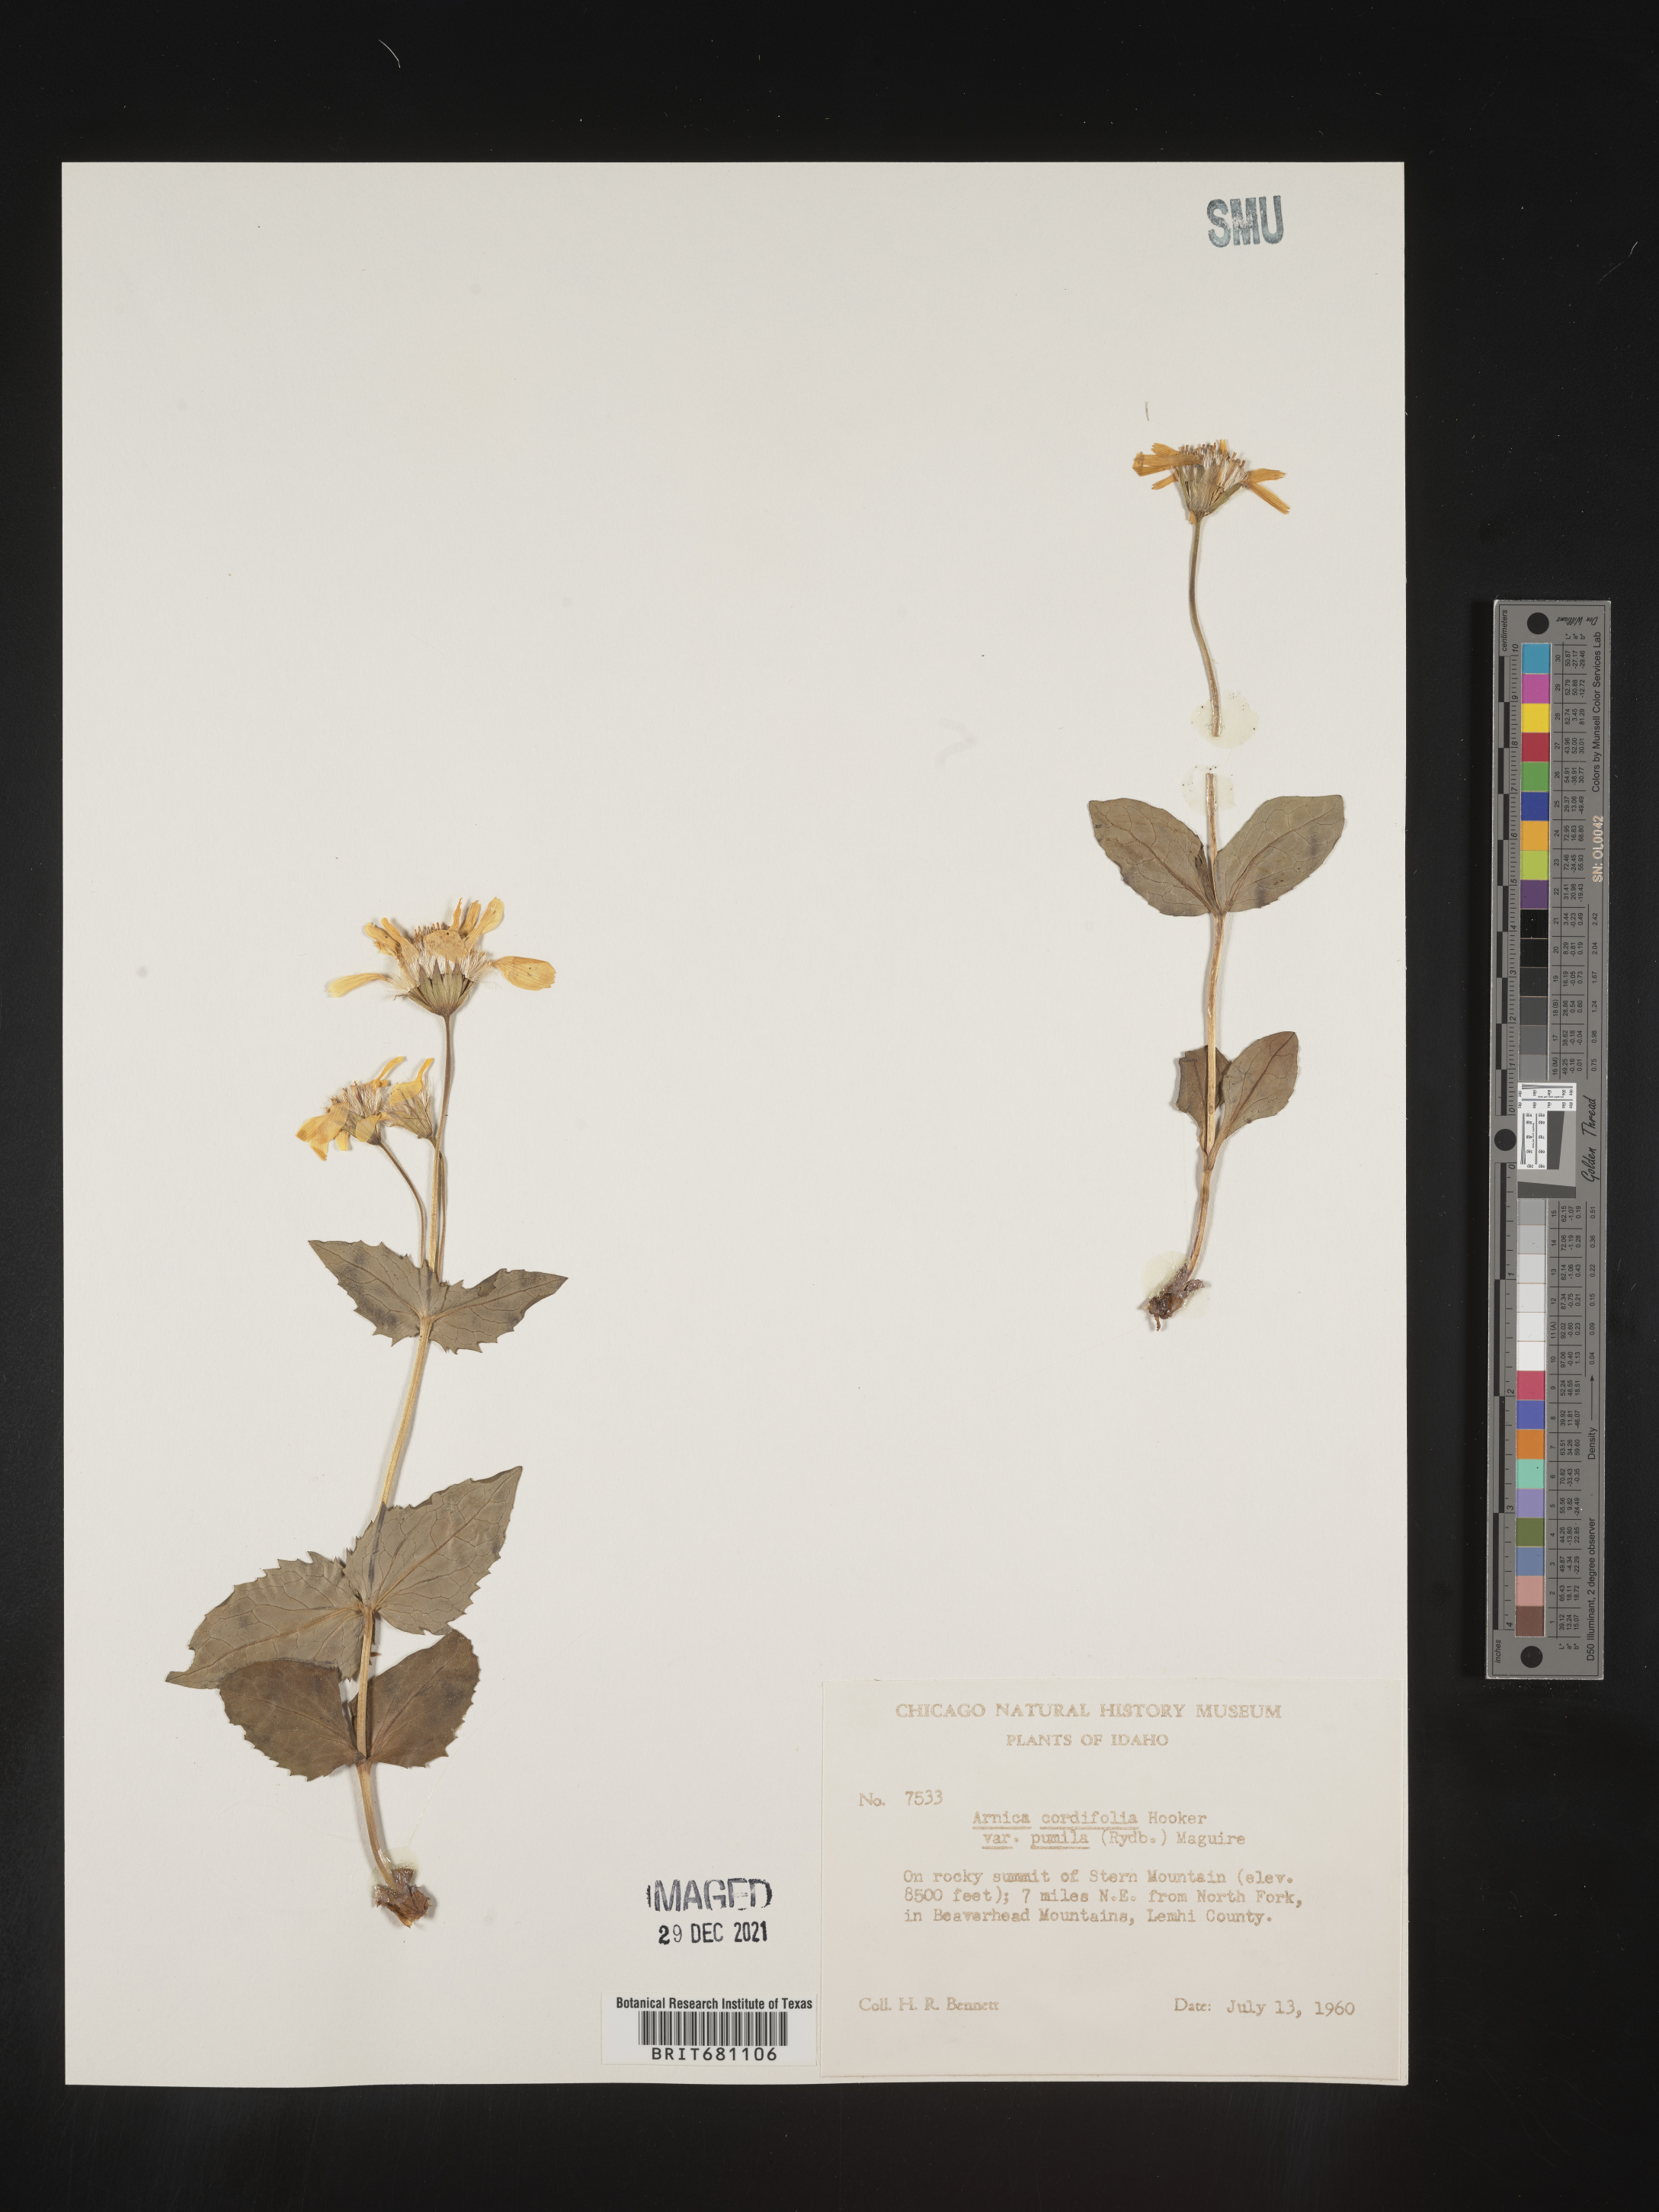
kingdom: Plantae
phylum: Tracheophyta
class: Magnoliopsida
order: Asterales
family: Asteraceae
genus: Arnica
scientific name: Arnica cordifolia
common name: Heart-leaf arnica
